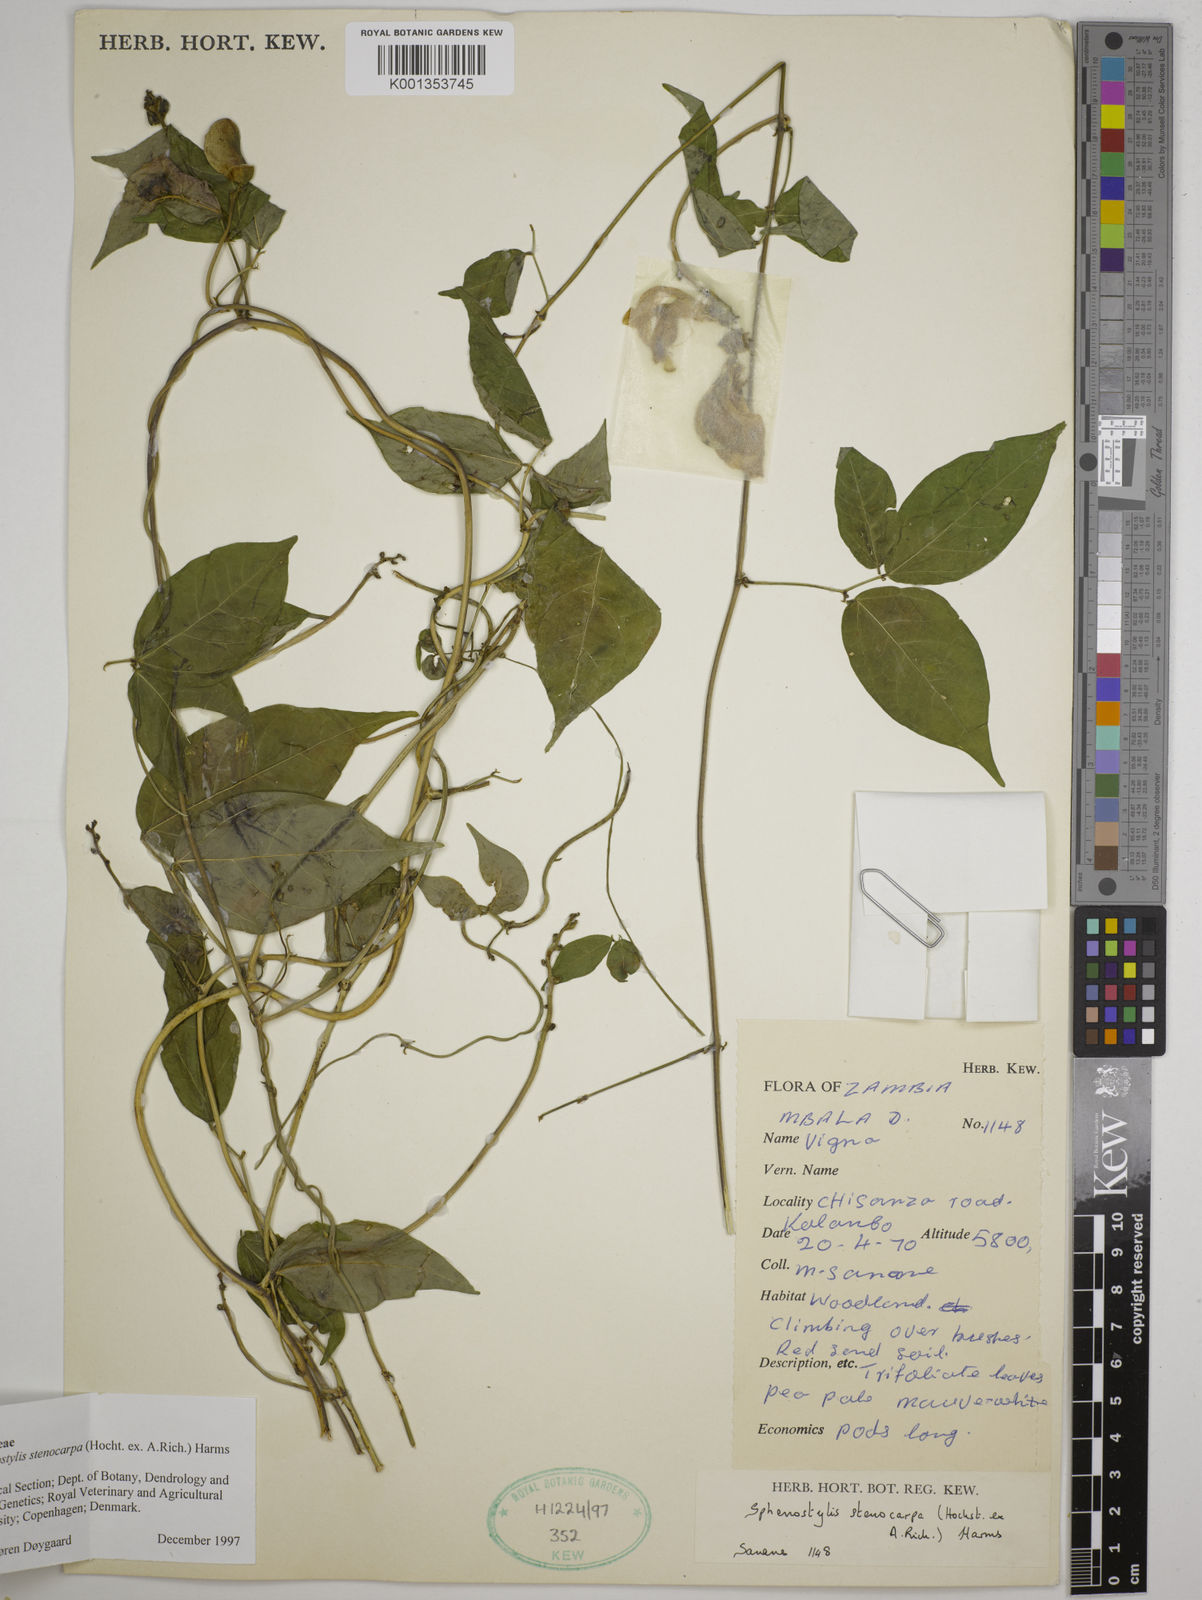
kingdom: Plantae
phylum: Tracheophyta
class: Magnoliopsida
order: Fabales
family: Fabaceae
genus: Sphenostylis
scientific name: Sphenostylis stenocarpa
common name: Yam-pea
